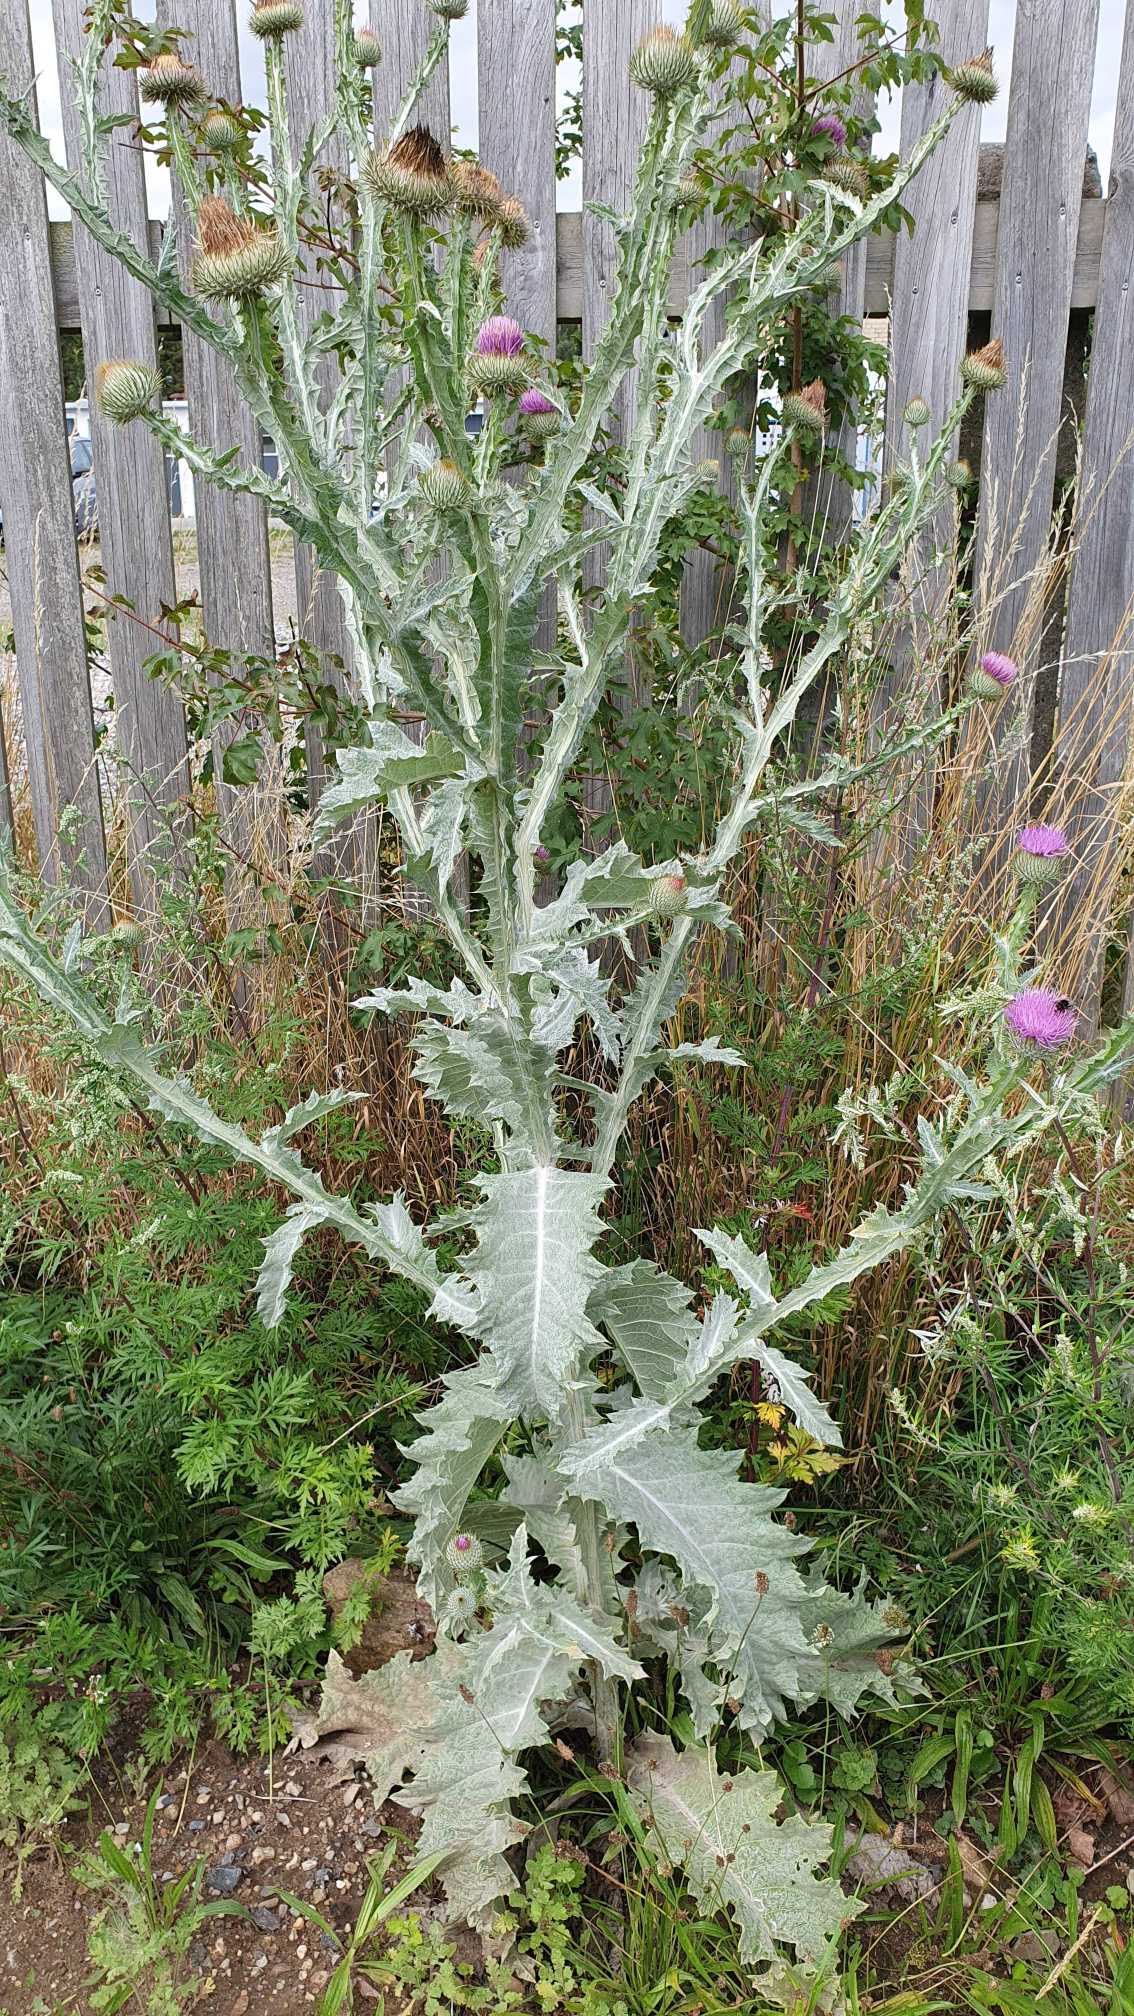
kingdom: Plantae
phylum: Tracheophyta
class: Magnoliopsida
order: Asterales
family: Asteraceae
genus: Onopordum
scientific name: Onopordum acanthium
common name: Æselfoder
